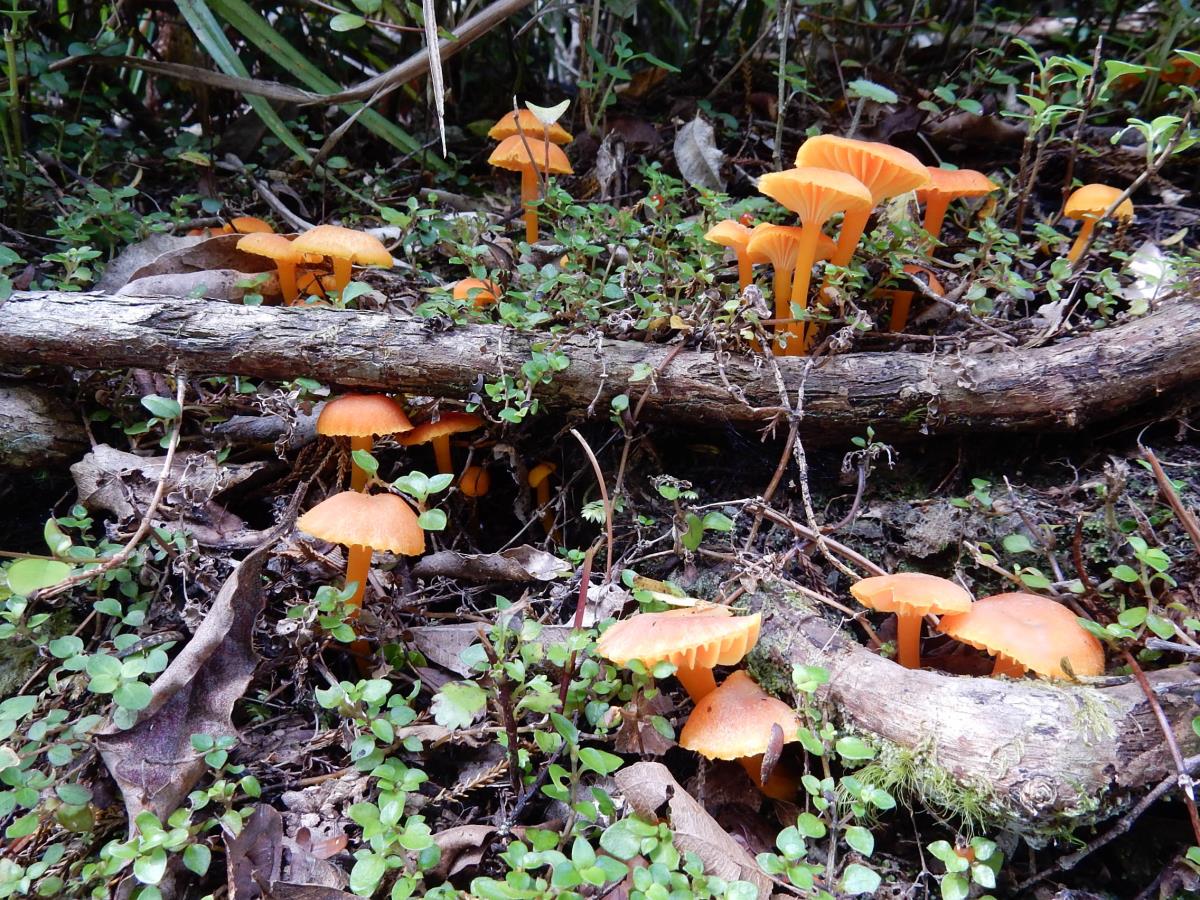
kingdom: Fungi
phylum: Basidiomycota
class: Agaricomycetes
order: Agaricales
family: Hygrophoraceae
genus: Hygrocybe
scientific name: Hygrocybe firma
